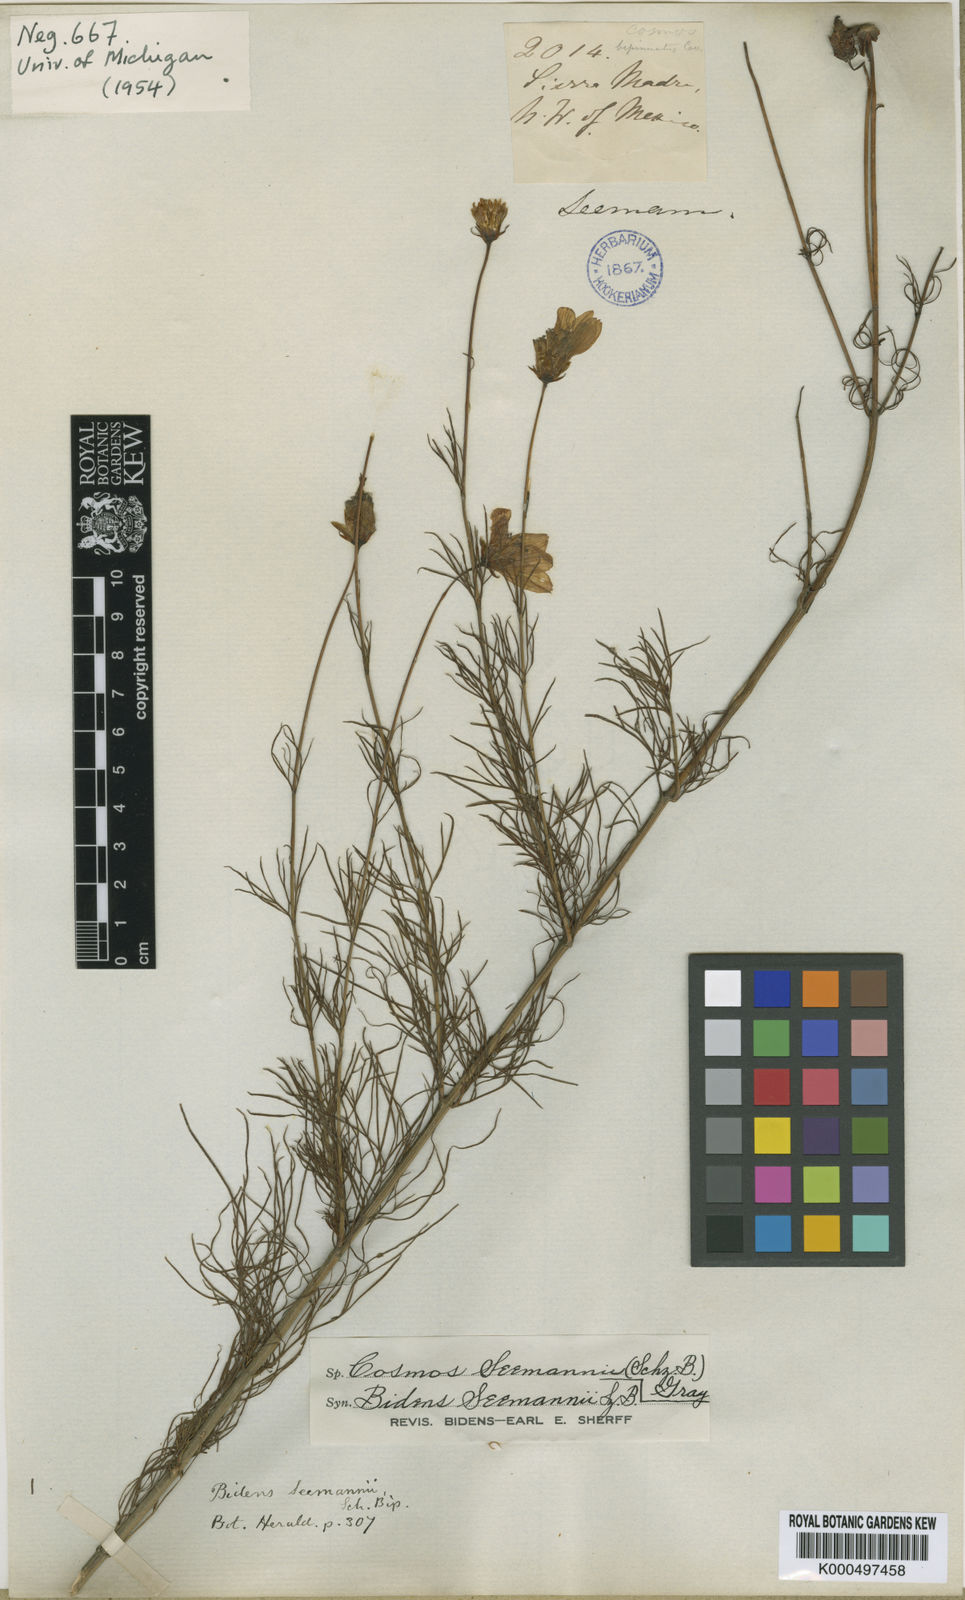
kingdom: Plantae
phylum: Tracheophyta
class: Magnoliopsida
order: Asterales
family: Asteraceae
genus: Cosmos
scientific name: Cosmos carvifolius
